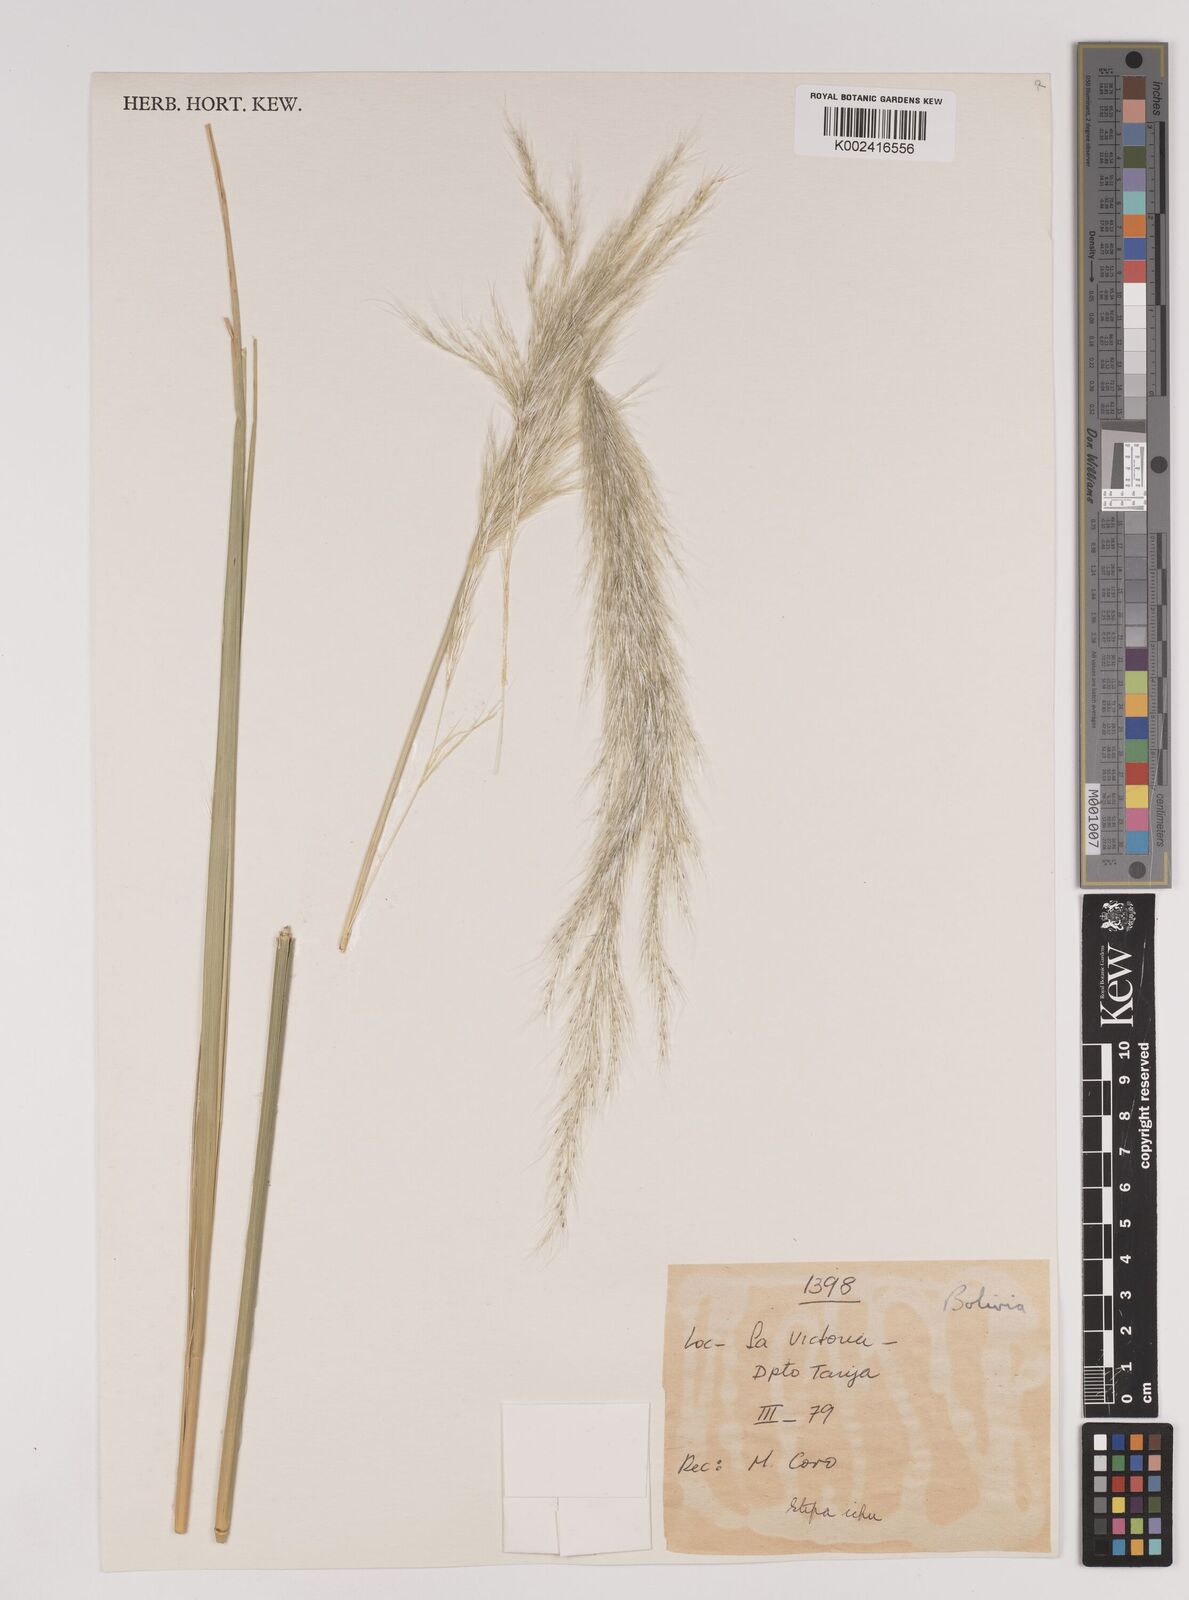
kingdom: Plantae
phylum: Tracheophyta
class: Liliopsida
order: Poales
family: Poaceae
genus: Jarava
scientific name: Jarava pseudoichu
